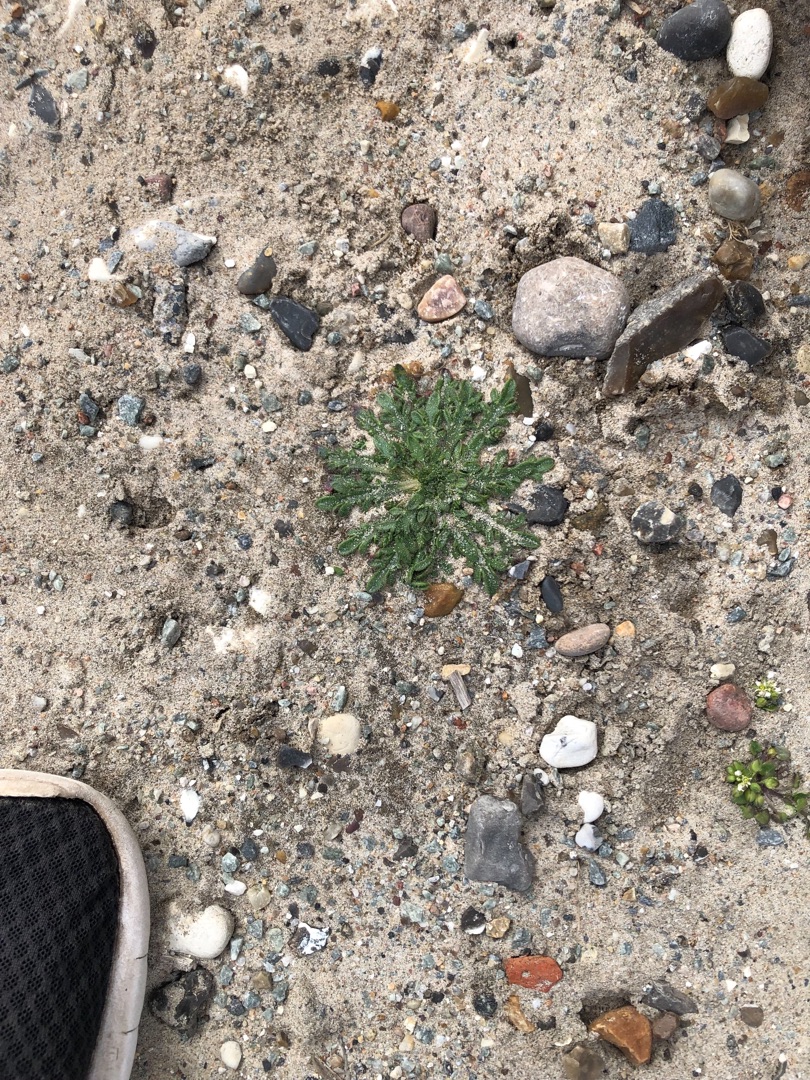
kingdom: Plantae
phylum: Tracheophyta
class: Magnoliopsida
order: Lamiales
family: Plantaginaceae
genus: Plantago
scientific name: Plantago coronopus
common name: Fliget vejbred
